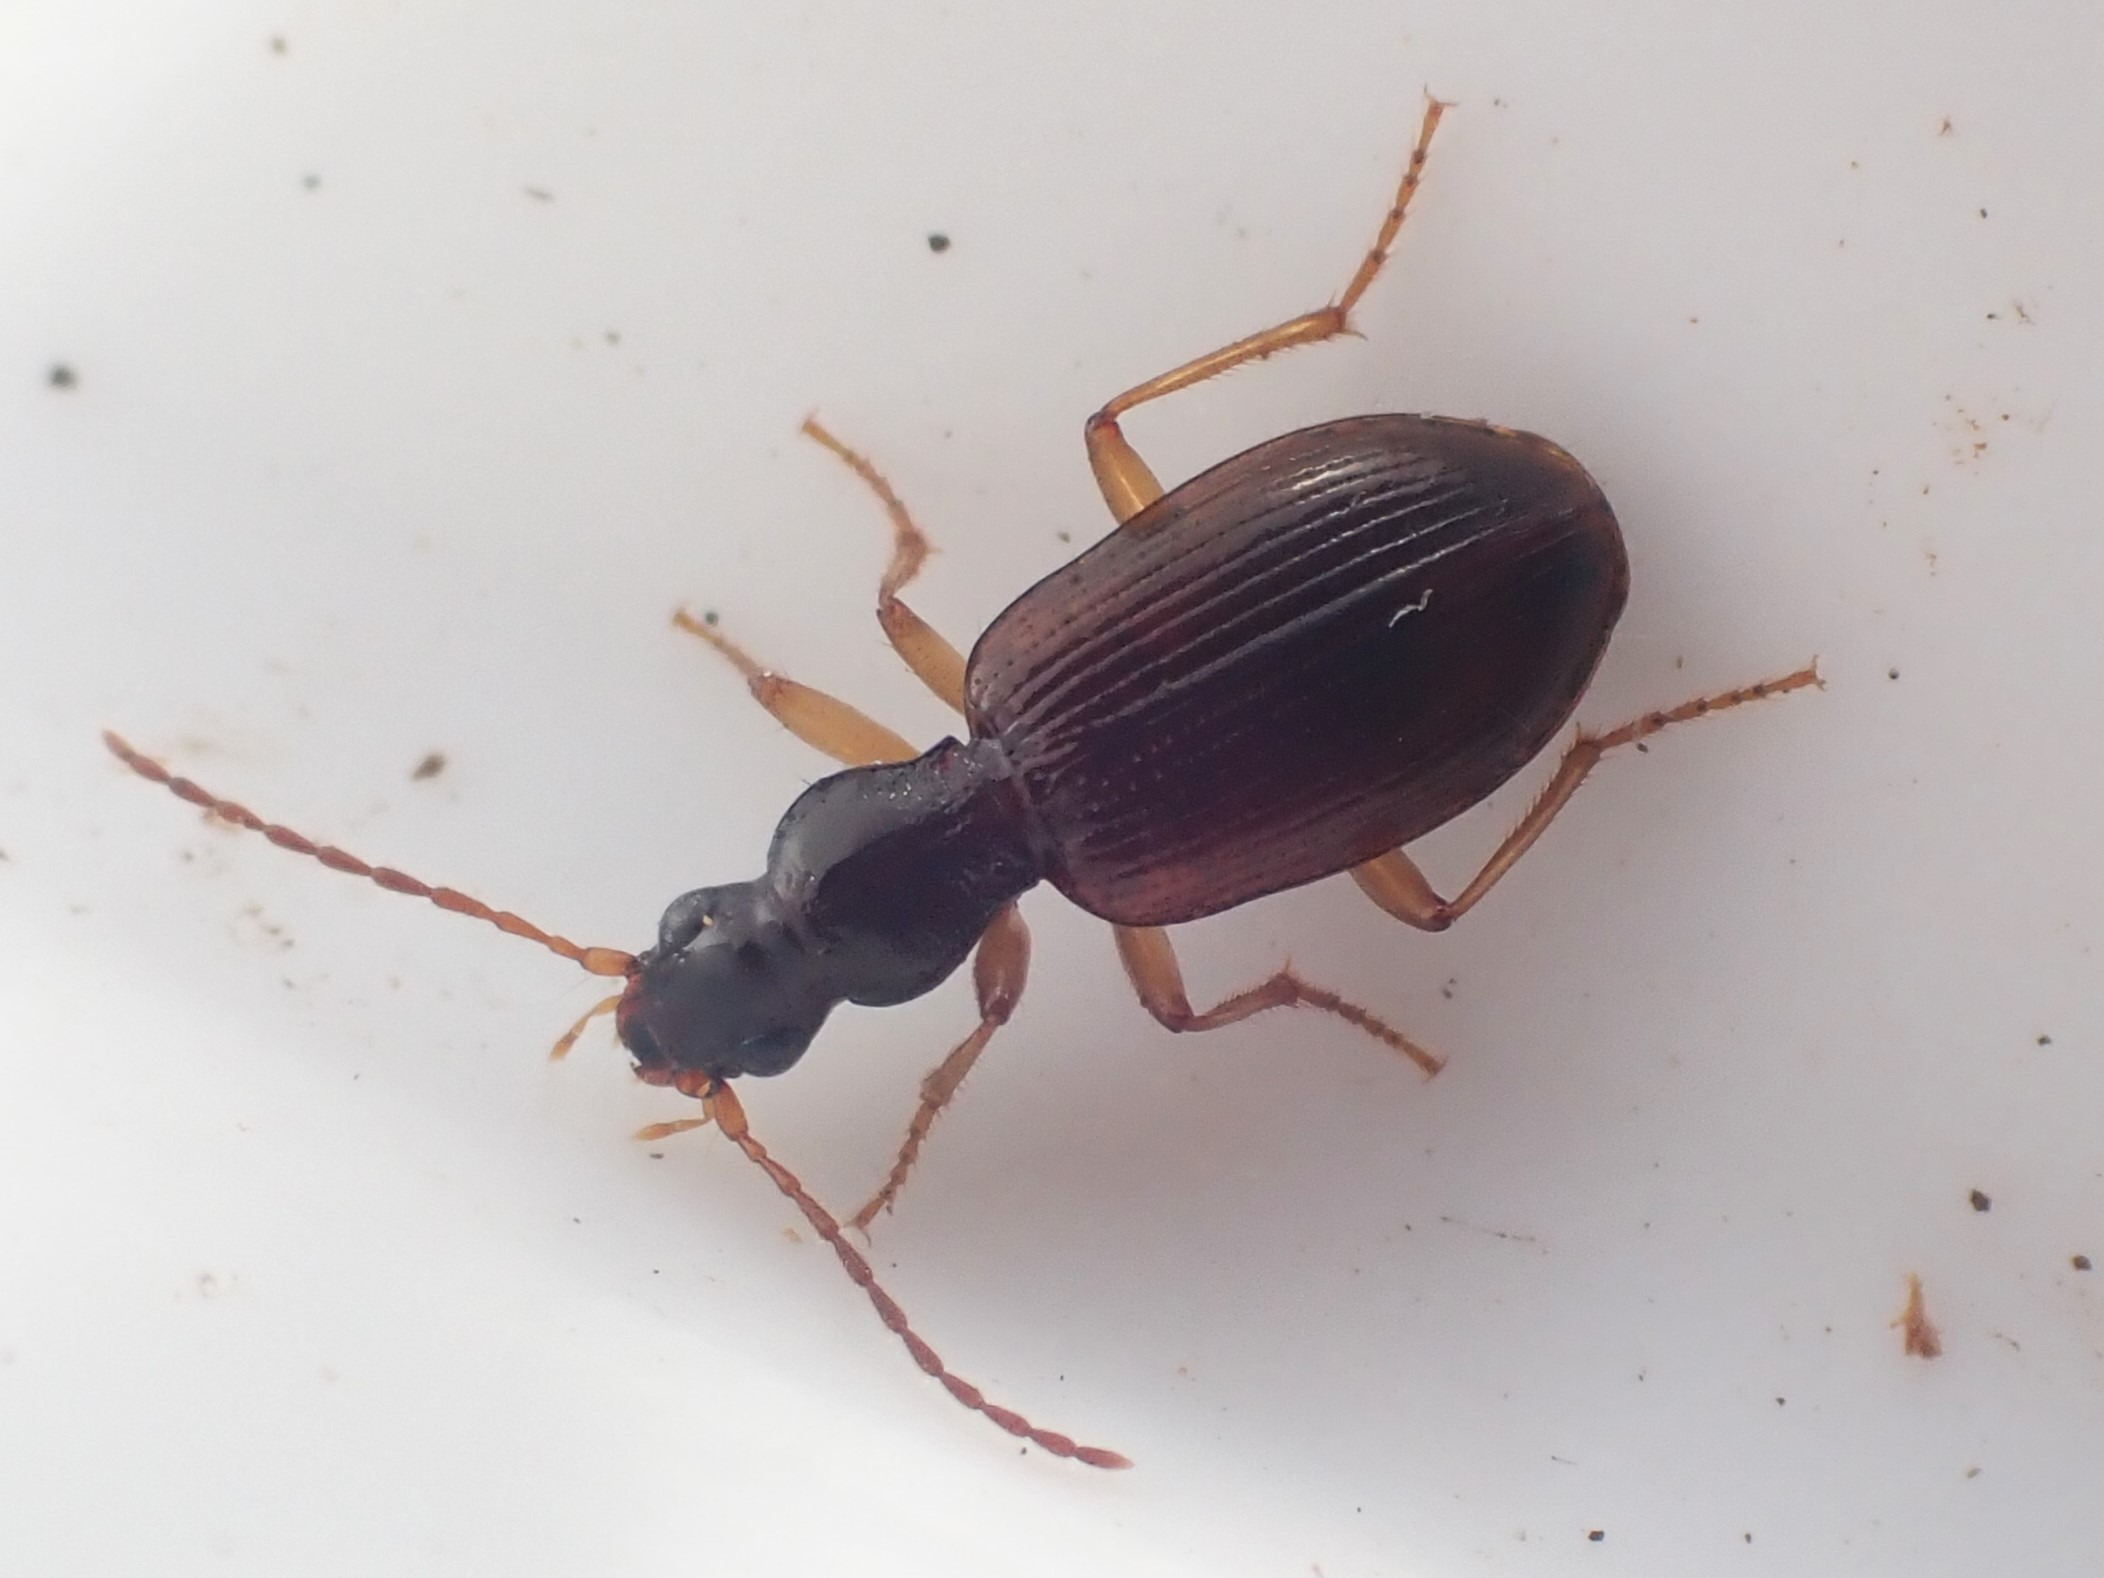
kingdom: Animalia
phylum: Arthropoda
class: Insecta
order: Coleoptera
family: Carabidae
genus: Oxypselaphus
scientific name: Oxypselaphus obscurus
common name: Rødbrun kvikløber
